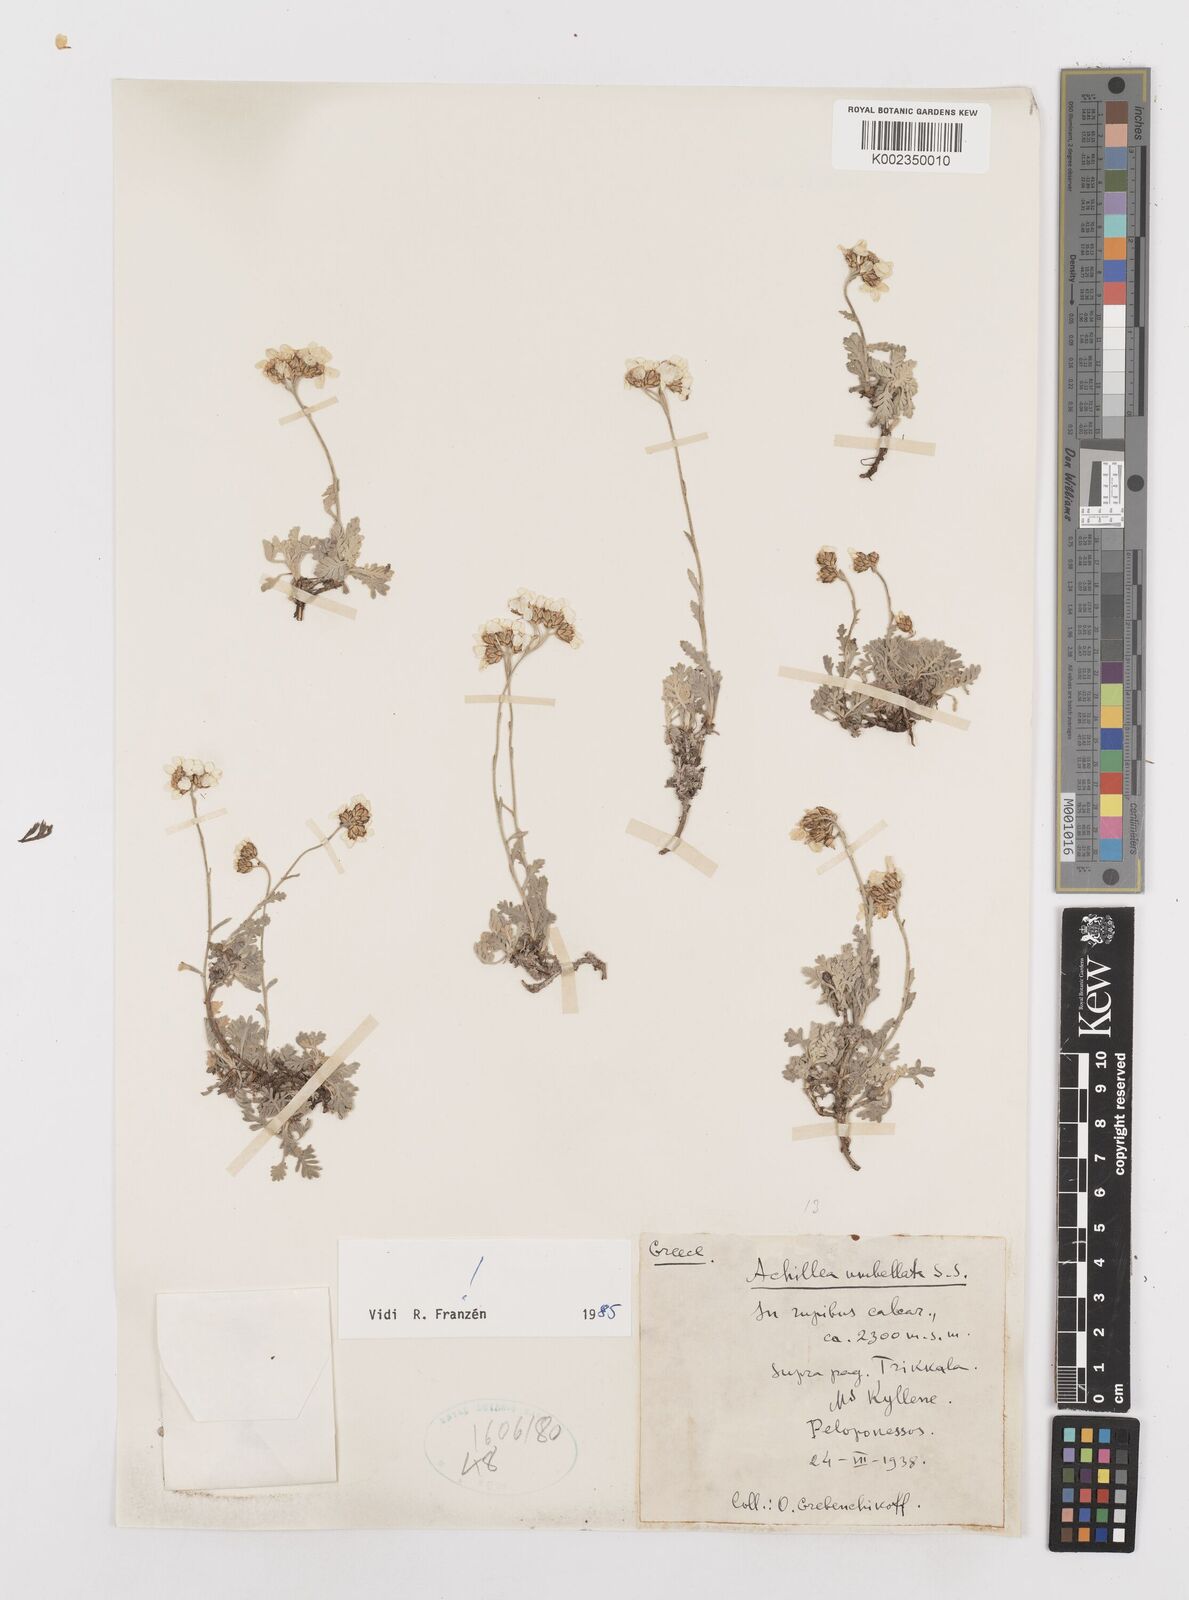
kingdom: Plantae
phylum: Tracheophyta
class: Magnoliopsida
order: Asterales
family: Asteraceae
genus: Achillea
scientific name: Achillea umbellata
